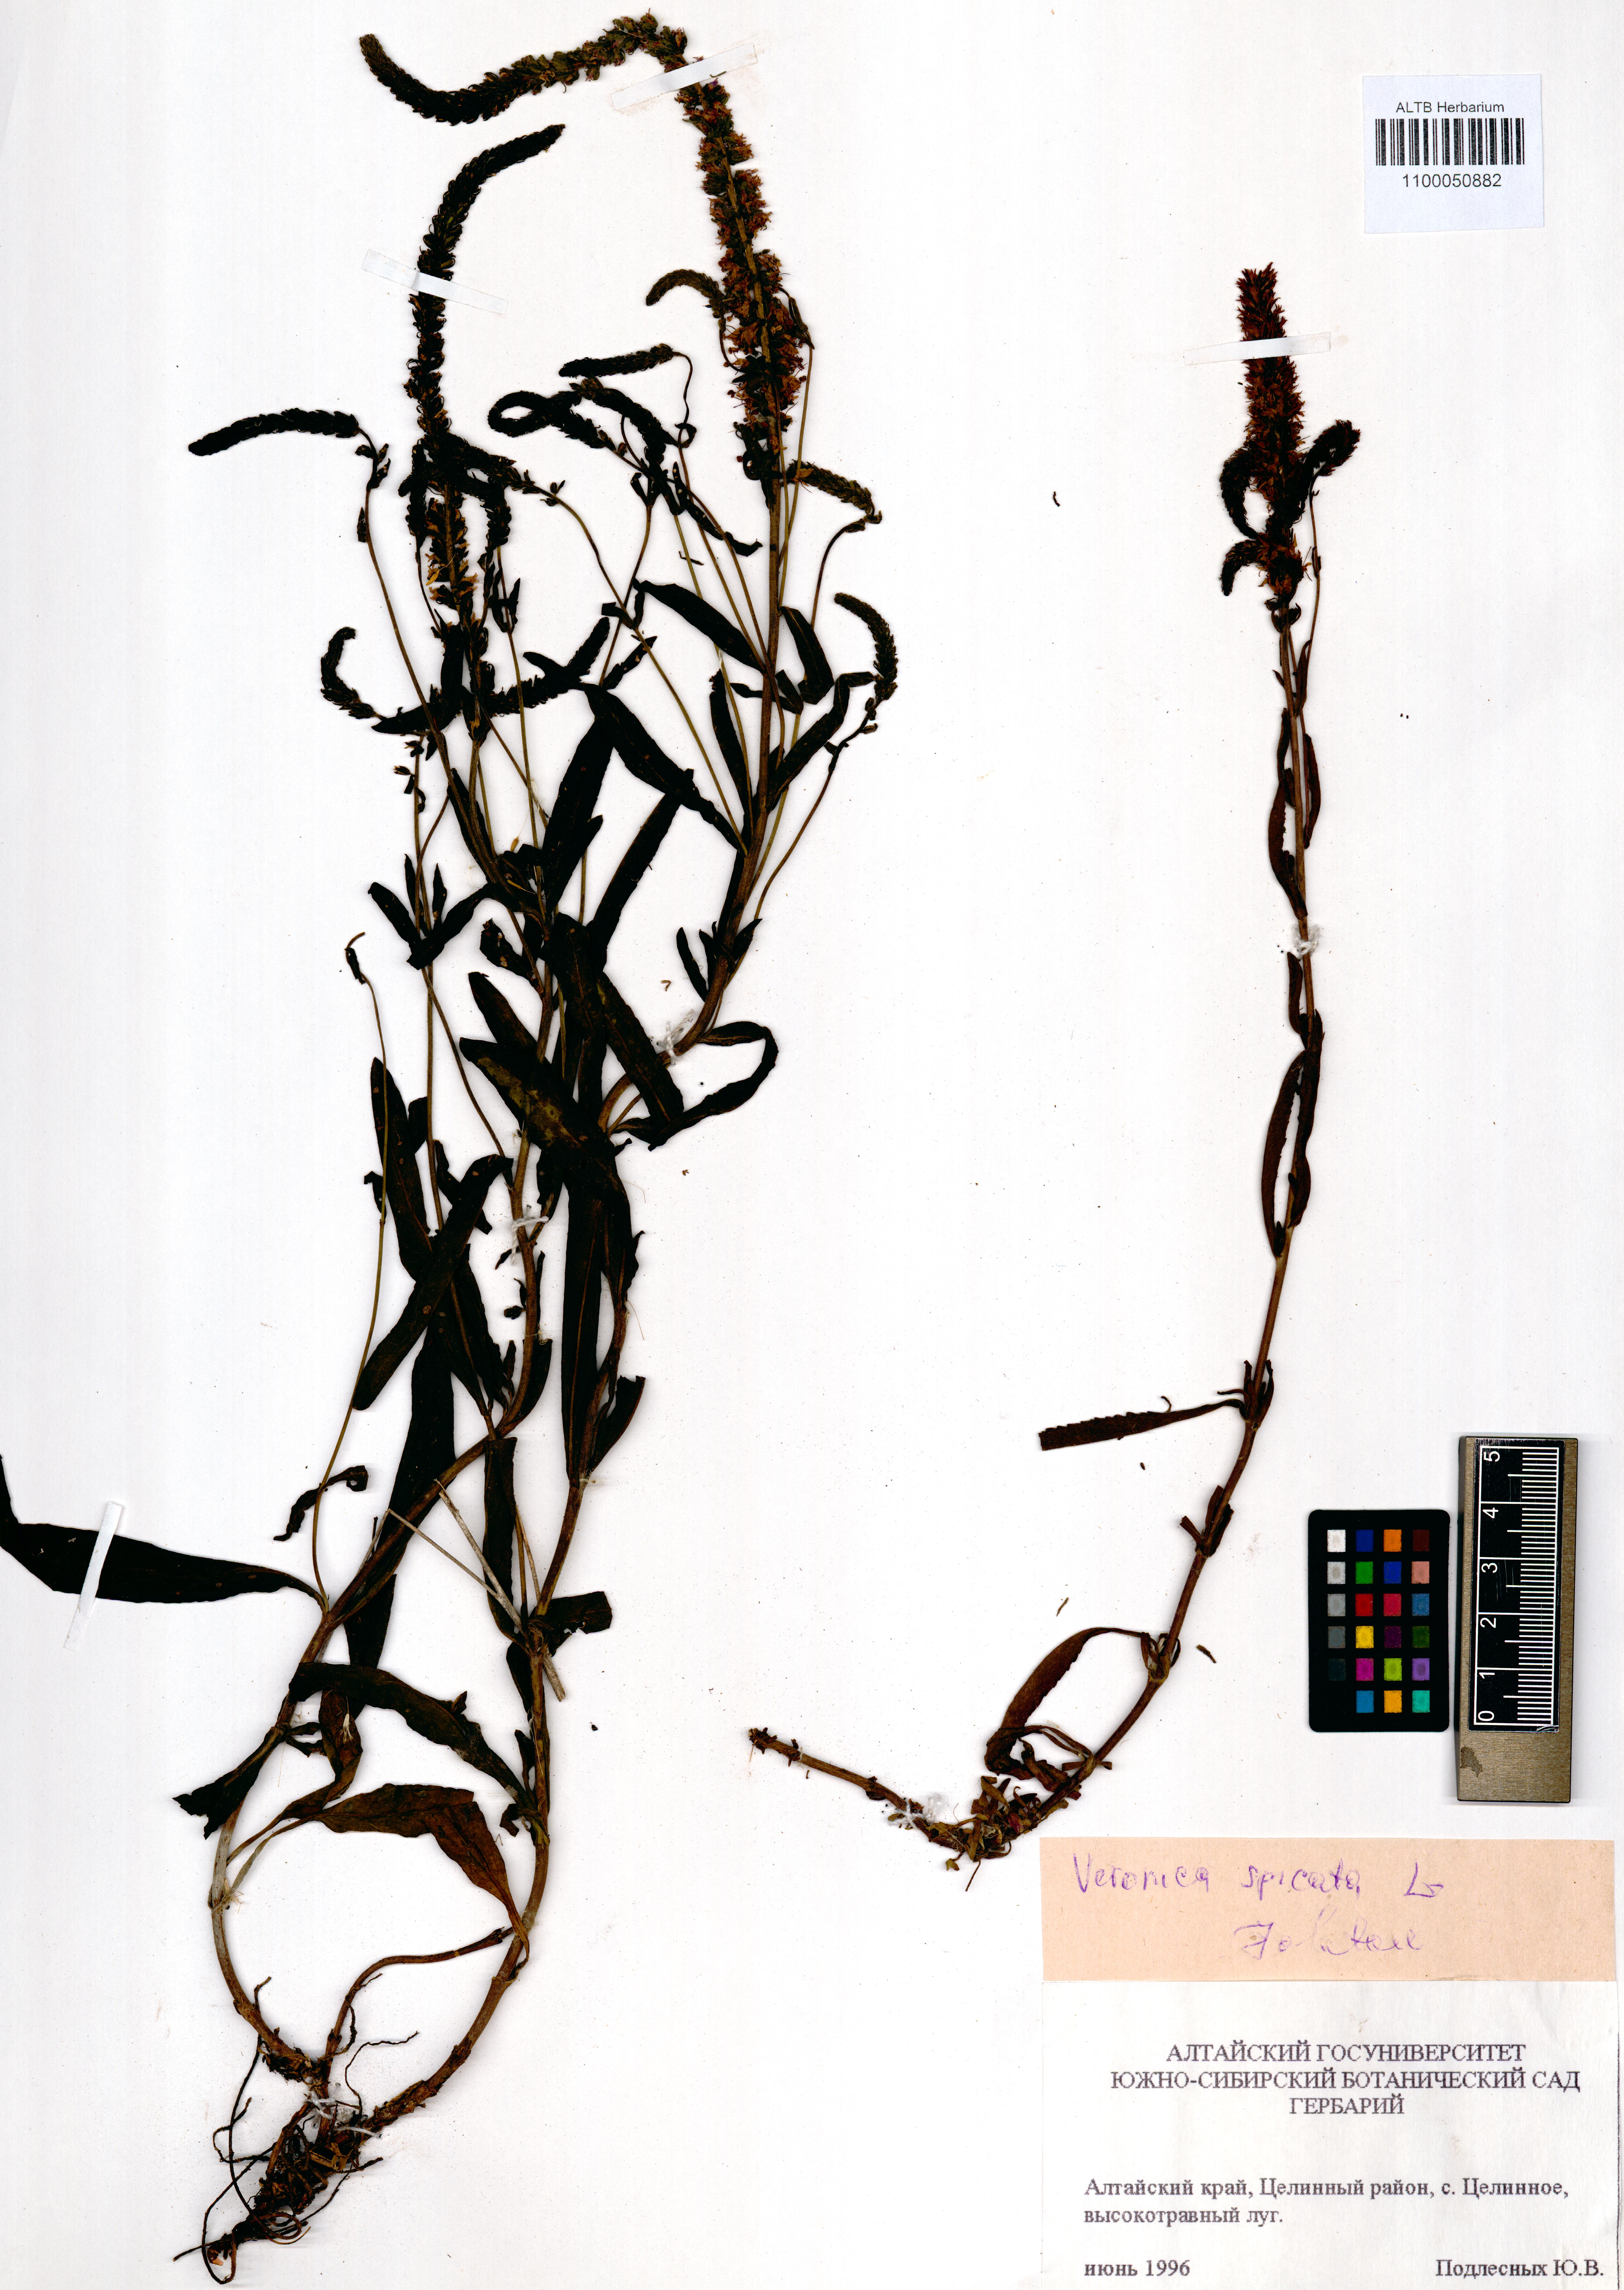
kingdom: Plantae
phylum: Tracheophyta
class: Magnoliopsida
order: Lamiales
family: Plantaginaceae
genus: Veronica
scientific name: Veronica spicata
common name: Spiked speedwell
